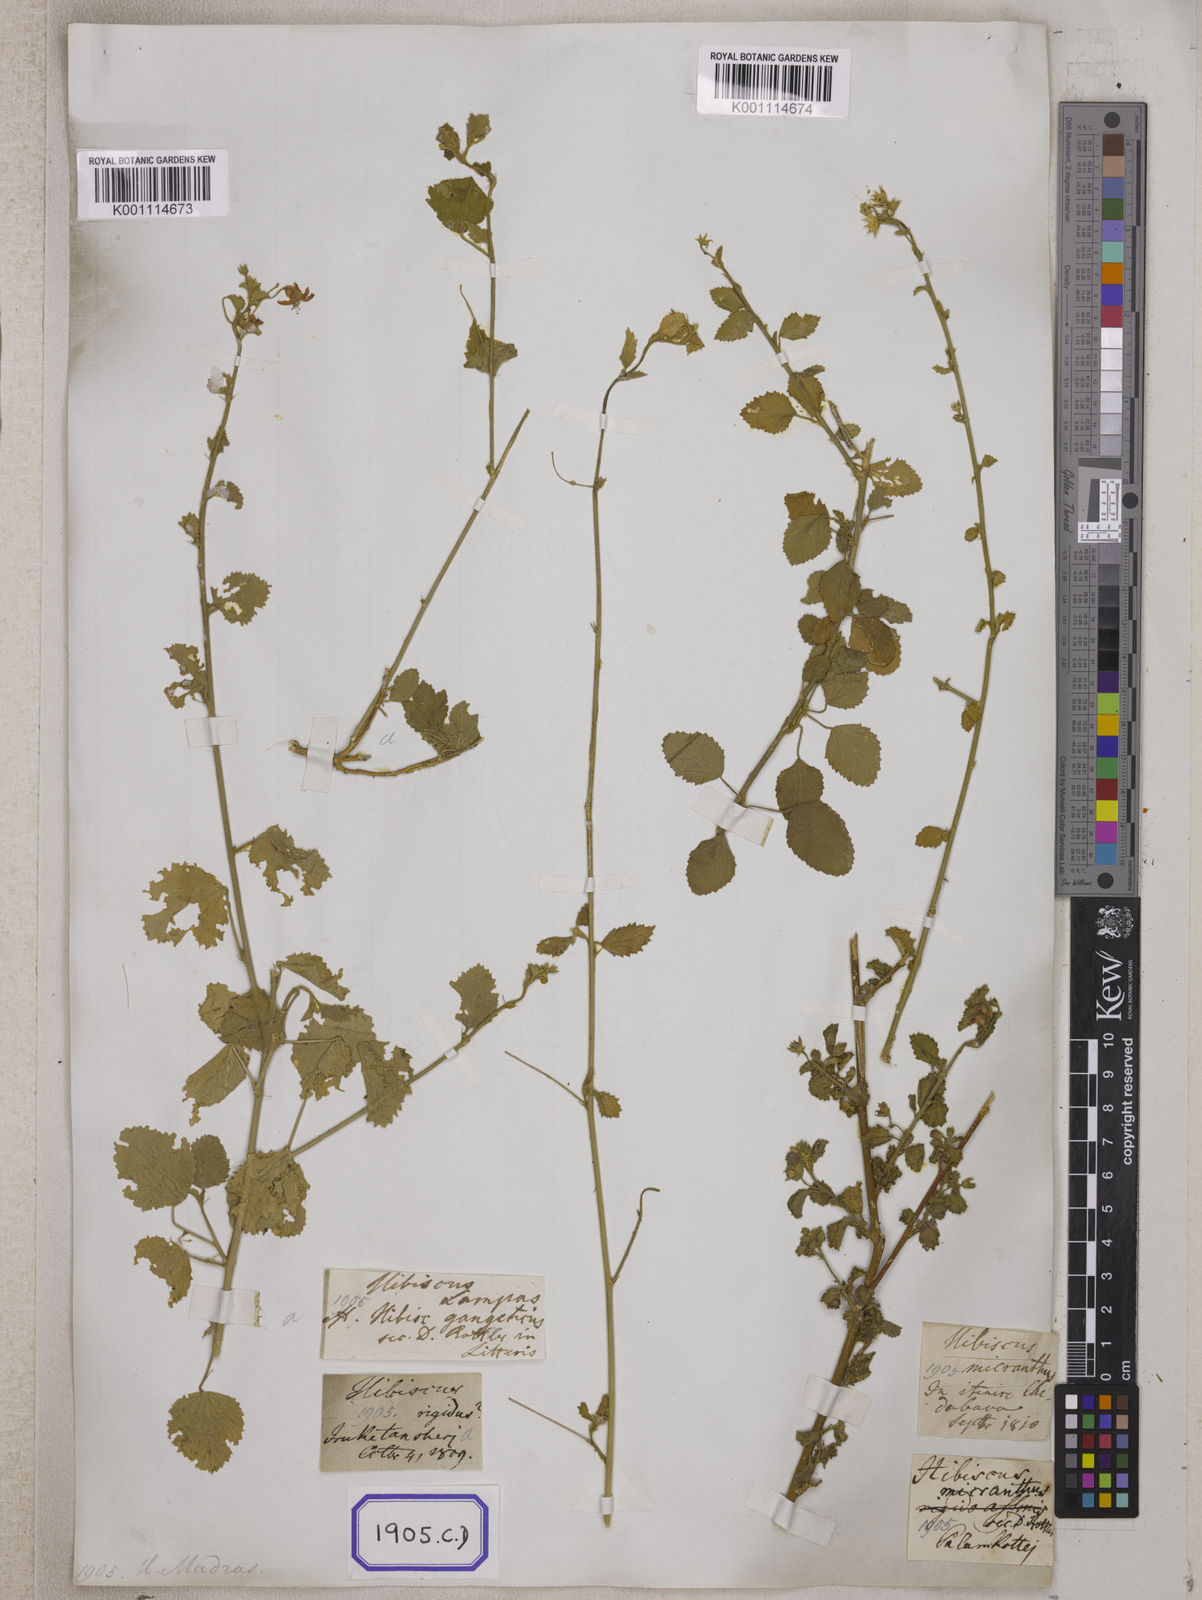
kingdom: Plantae
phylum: Tracheophyta
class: Magnoliopsida
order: Malvales
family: Malvaceae
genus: Hibiscus
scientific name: Hibiscus micranthus
